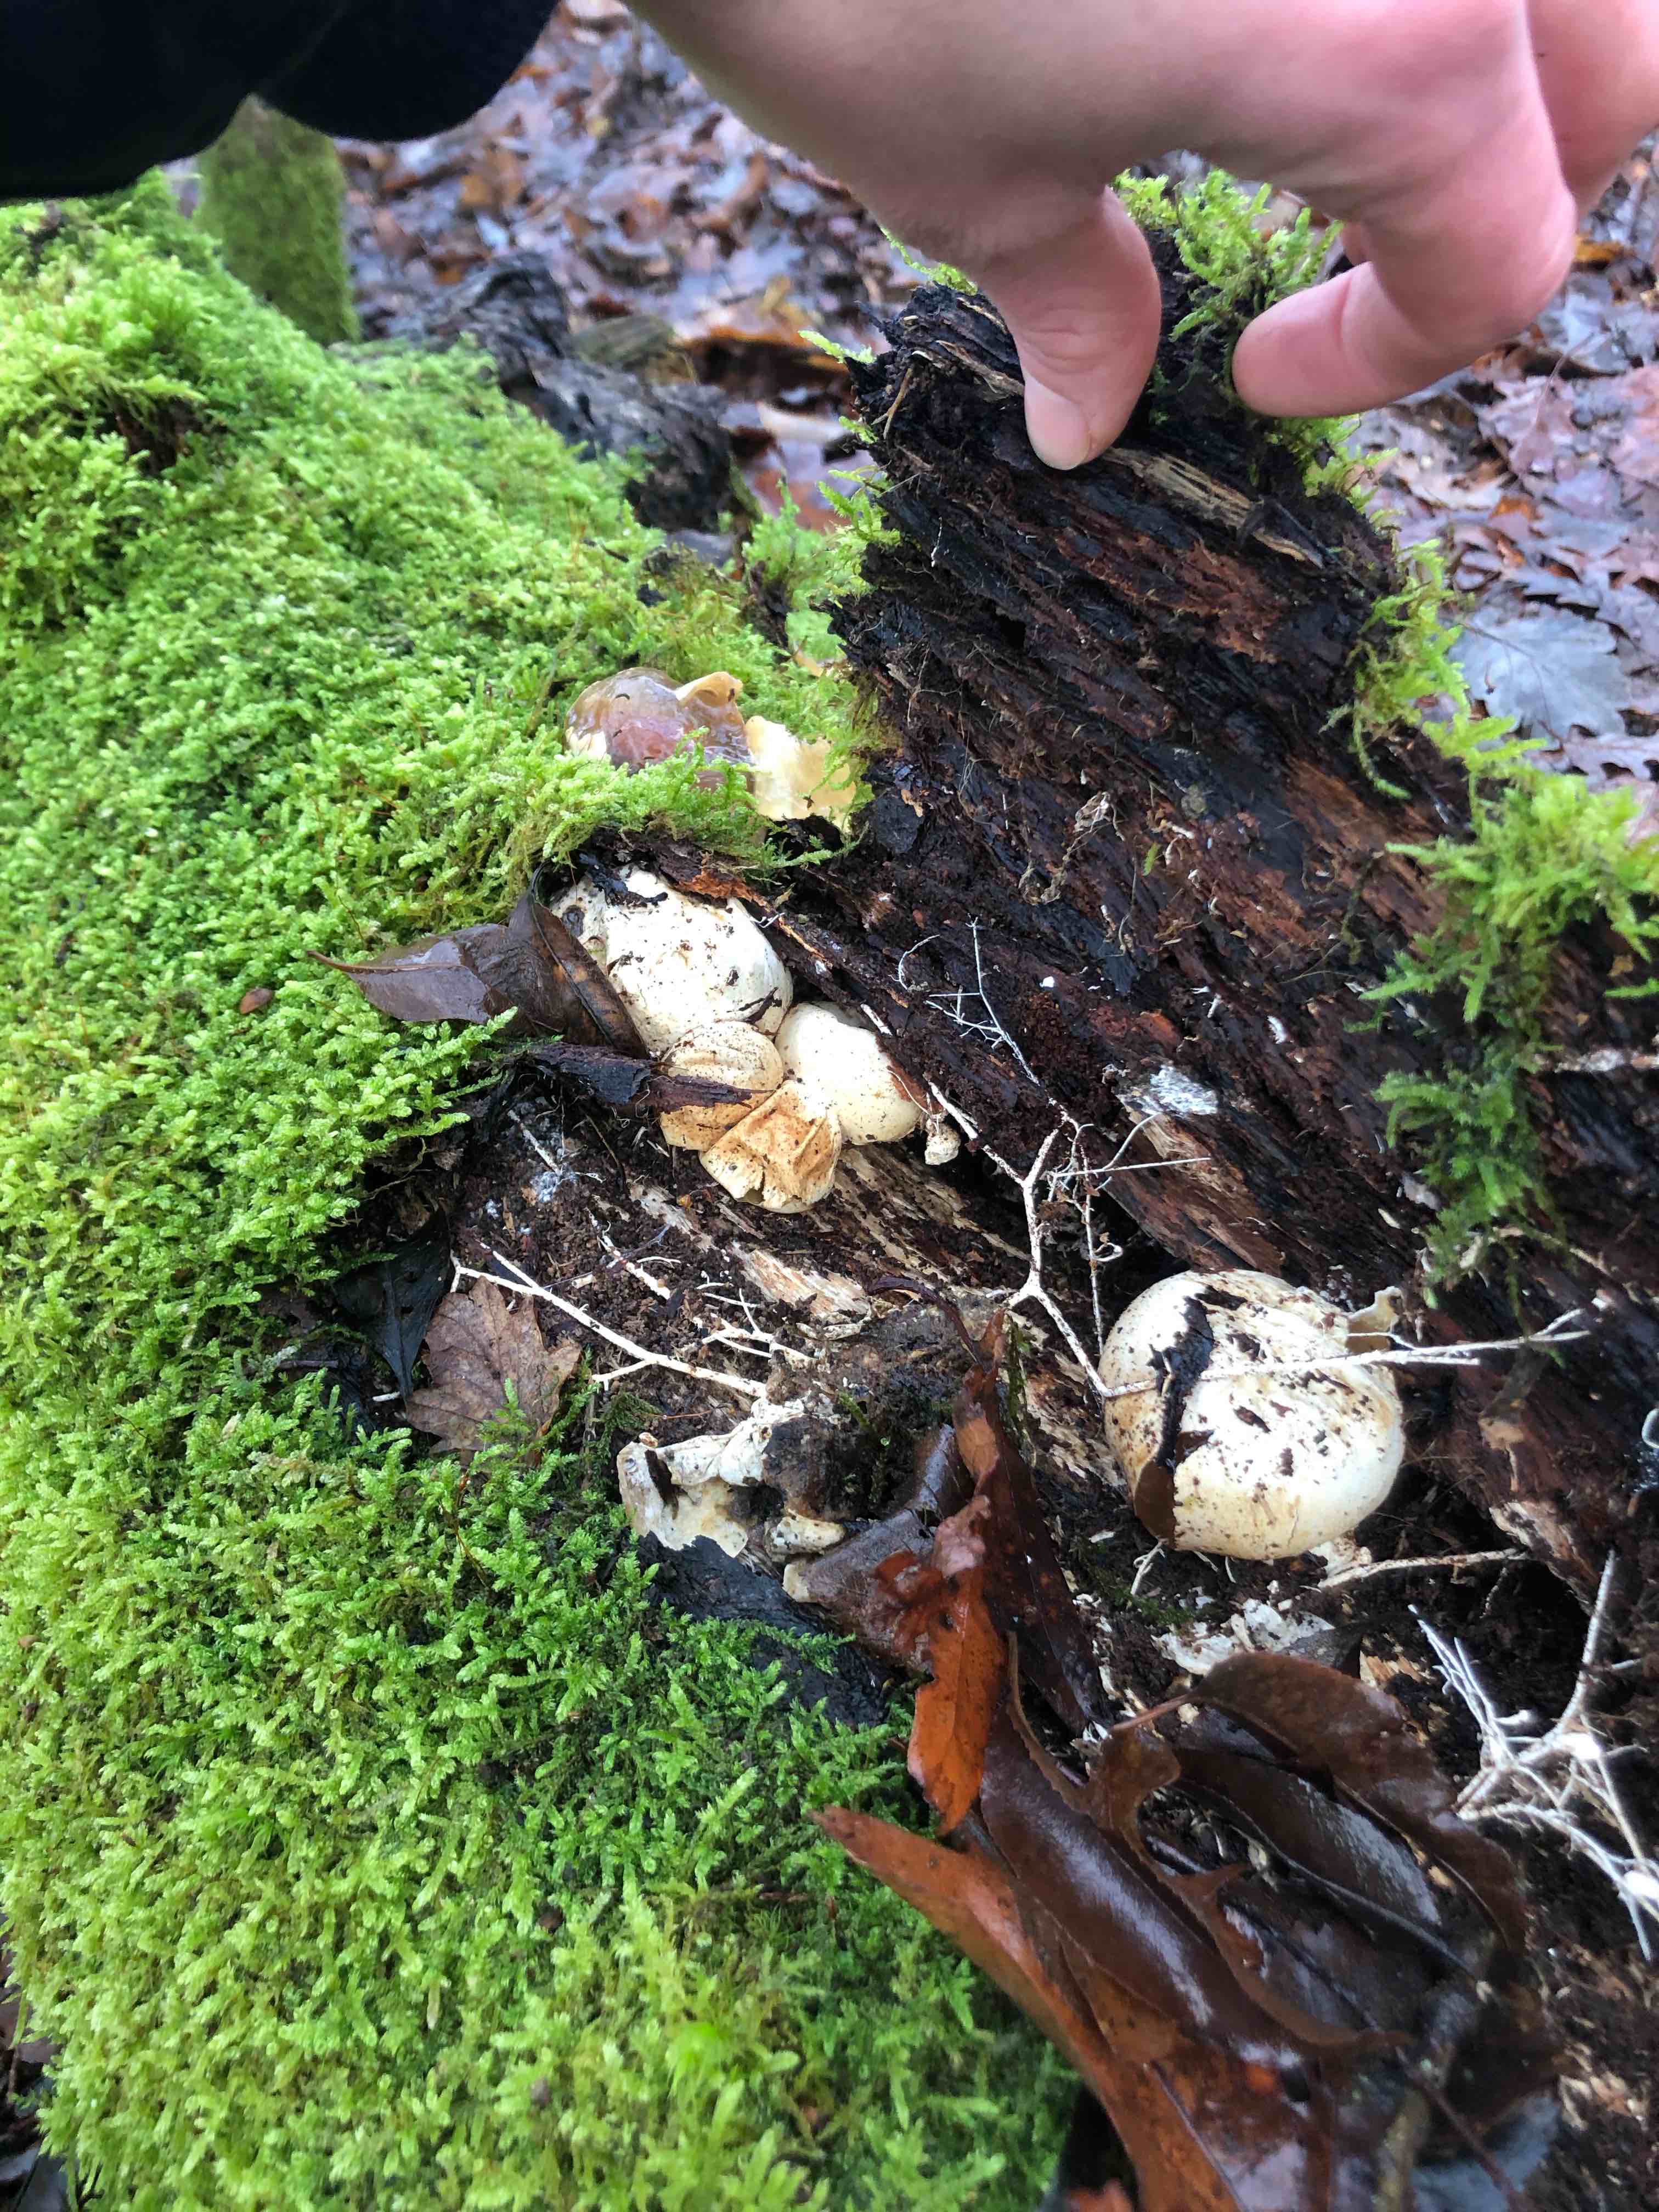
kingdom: Fungi
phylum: Basidiomycota
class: Agaricomycetes
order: Phallales
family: Phallaceae
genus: Phallus
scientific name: Phallus impudicus
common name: almindelig stinksvamp
